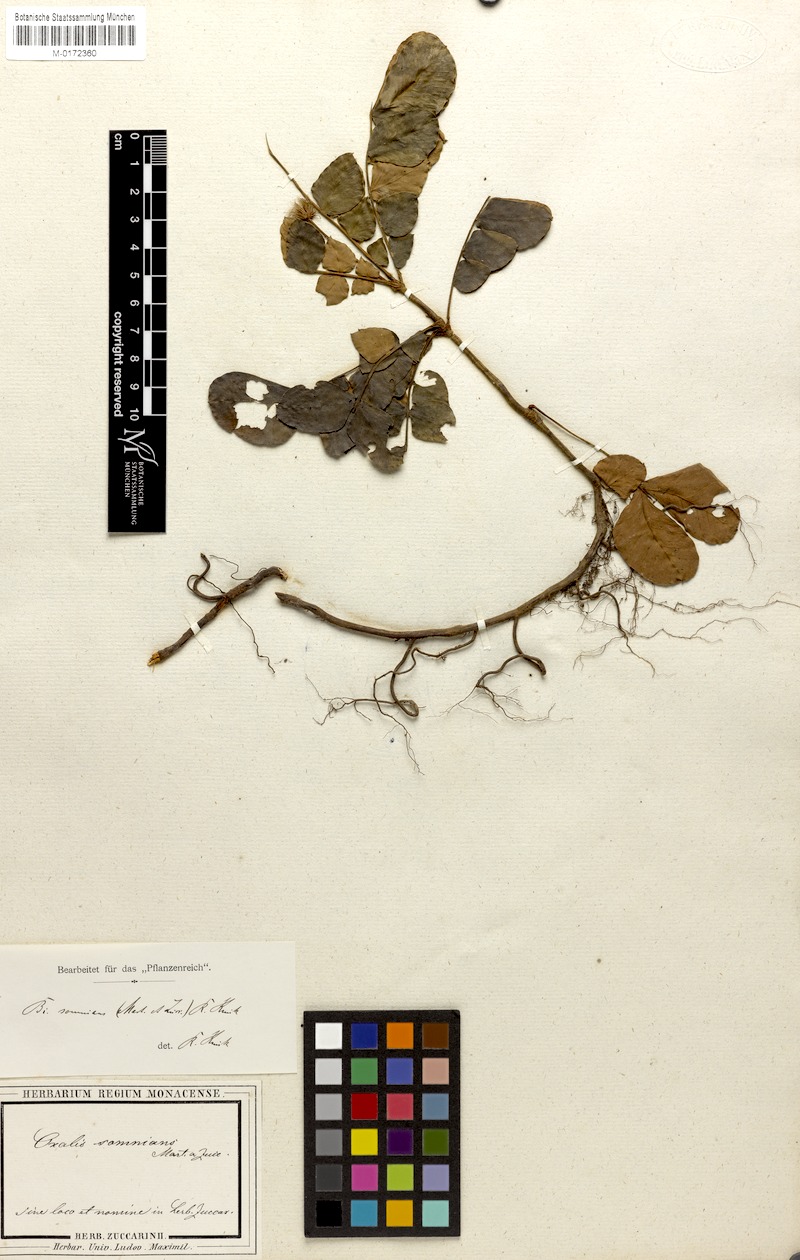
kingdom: Plantae
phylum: Tracheophyta
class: Magnoliopsida
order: Oxalidales
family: Oxalidaceae
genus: Biophytum
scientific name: Biophytum somnians
